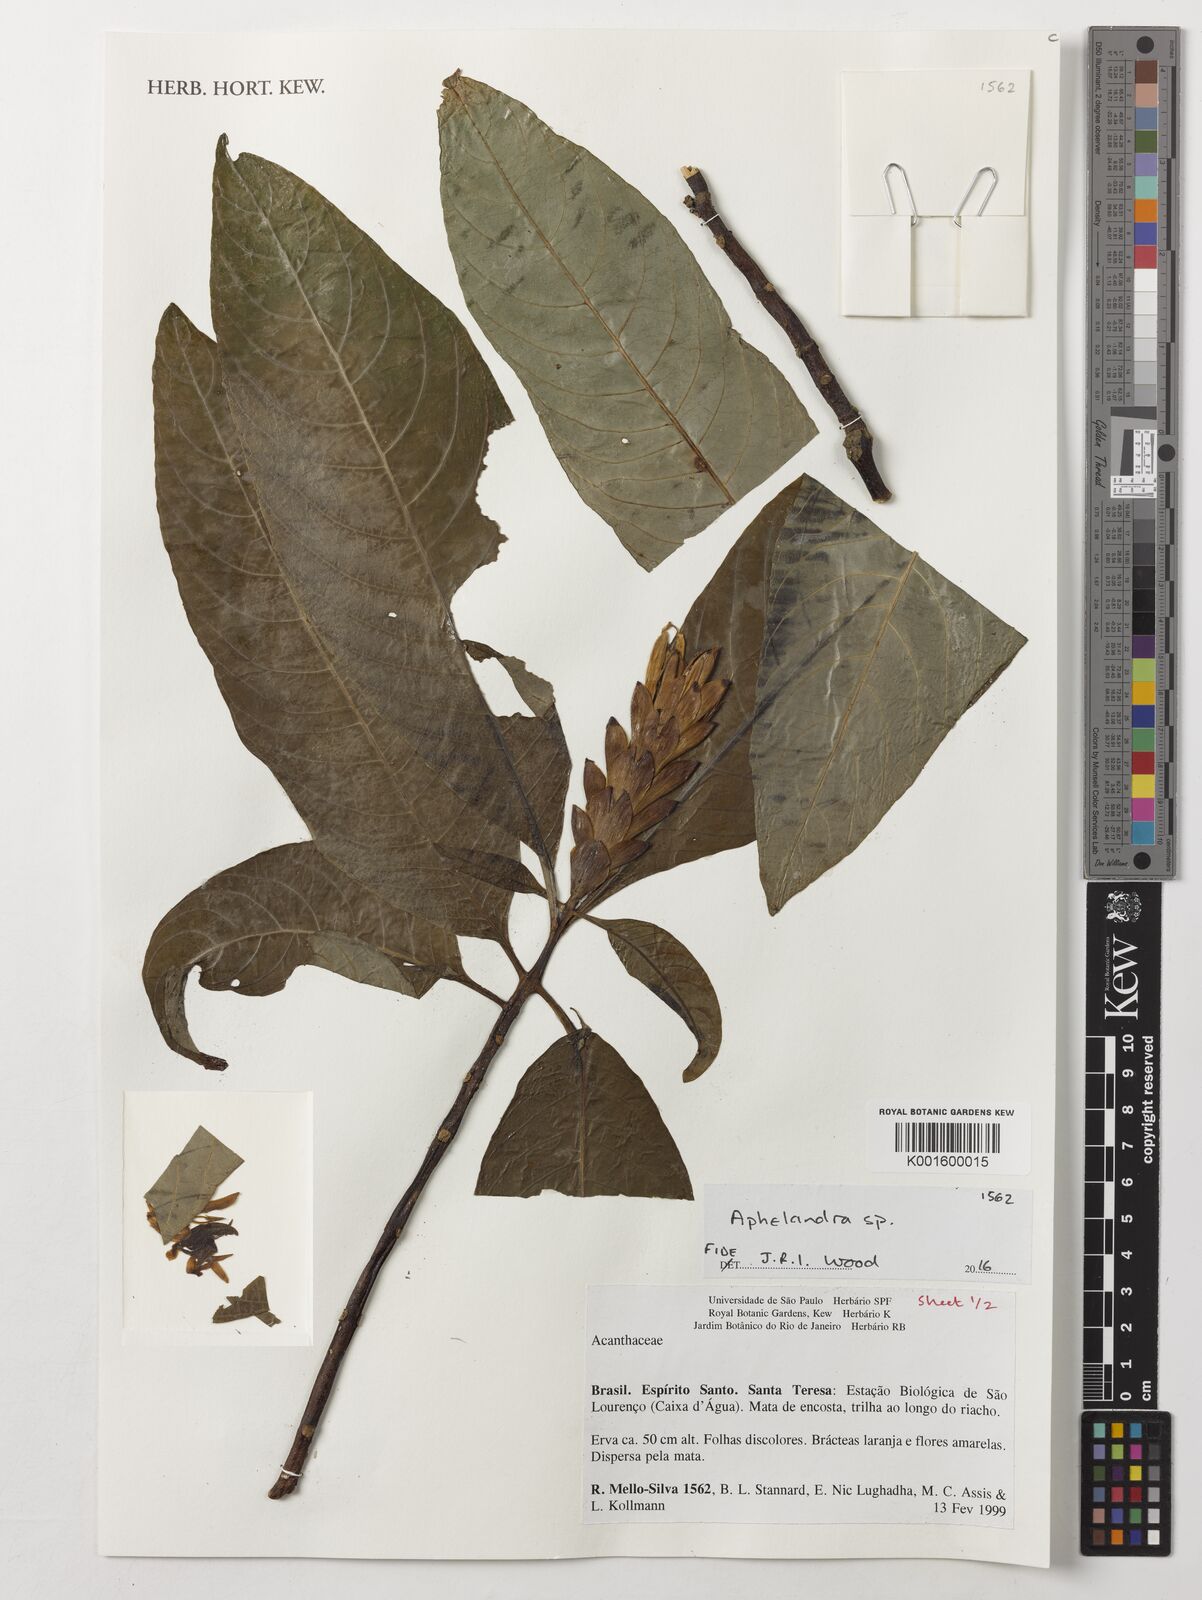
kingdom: Plantae
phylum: Tracheophyta
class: Magnoliopsida
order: Lamiales
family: Acanthaceae
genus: Aphelandra
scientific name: Aphelandra
